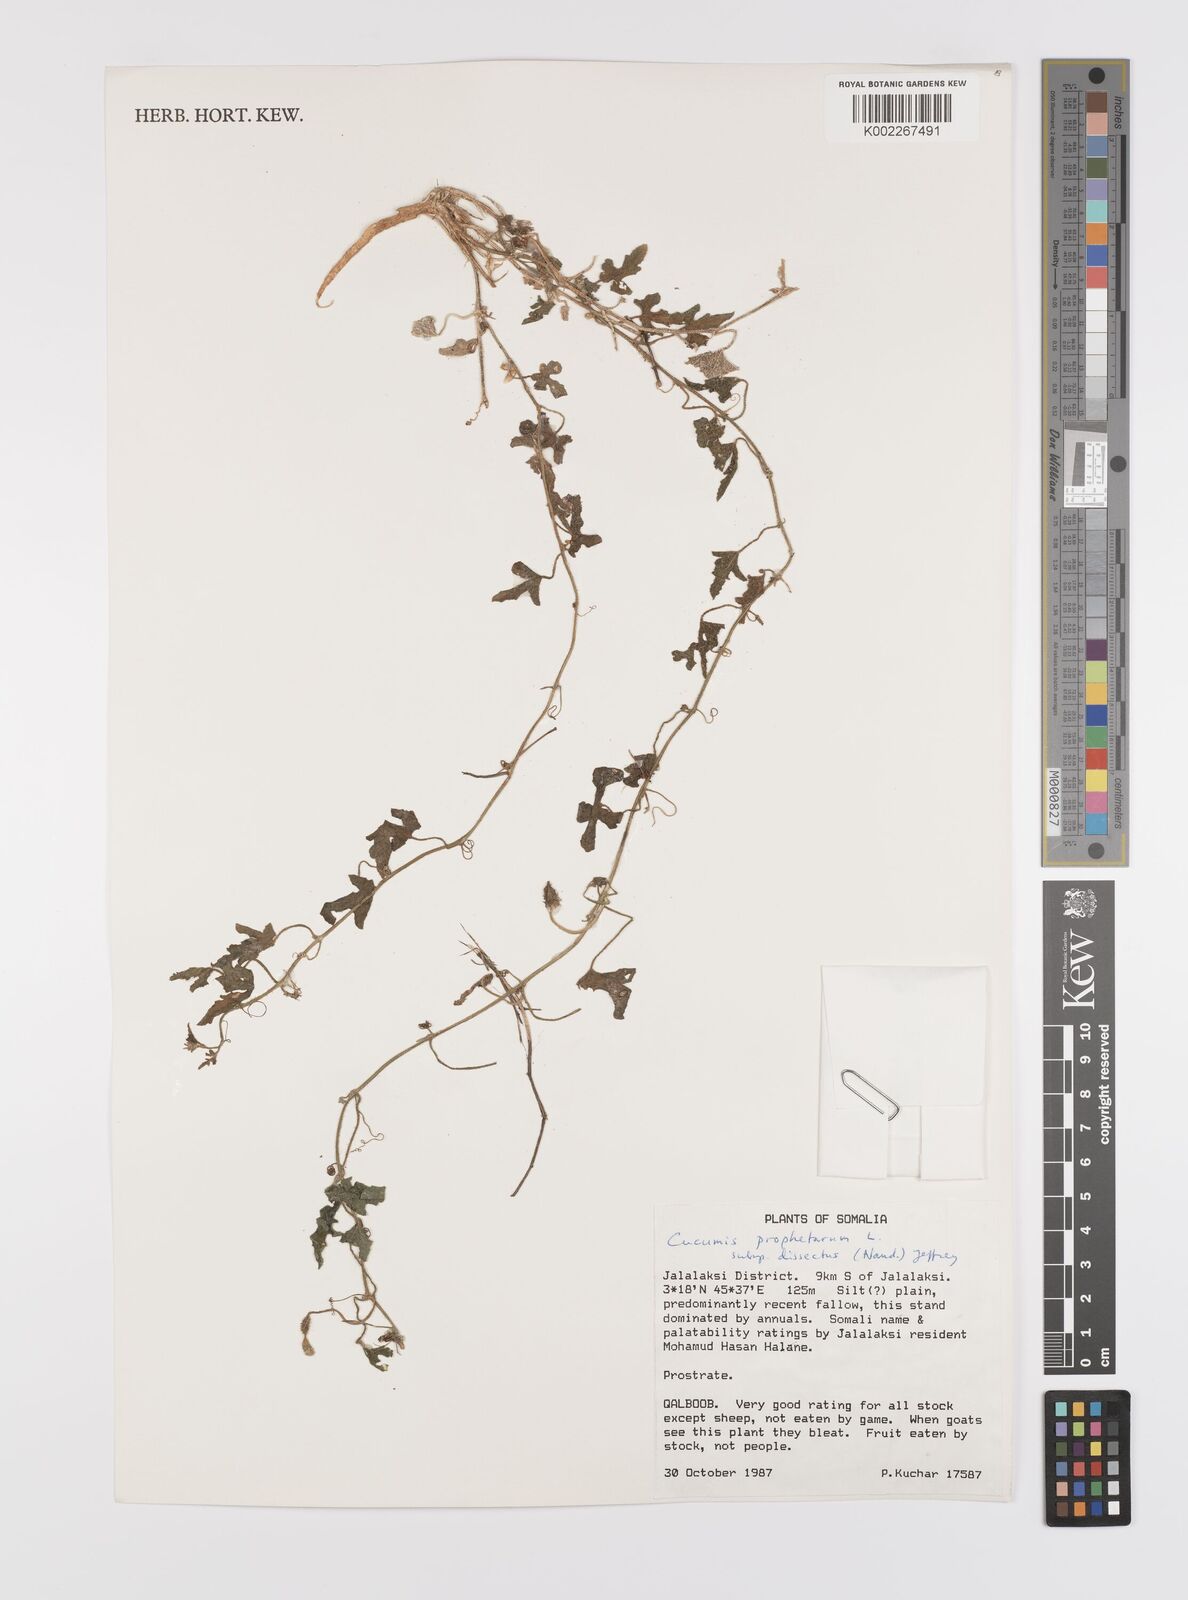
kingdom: Plantae
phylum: Tracheophyta
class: Magnoliopsida
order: Cucurbitales
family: Cucurbitaceae
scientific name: Cucurbitaceae
